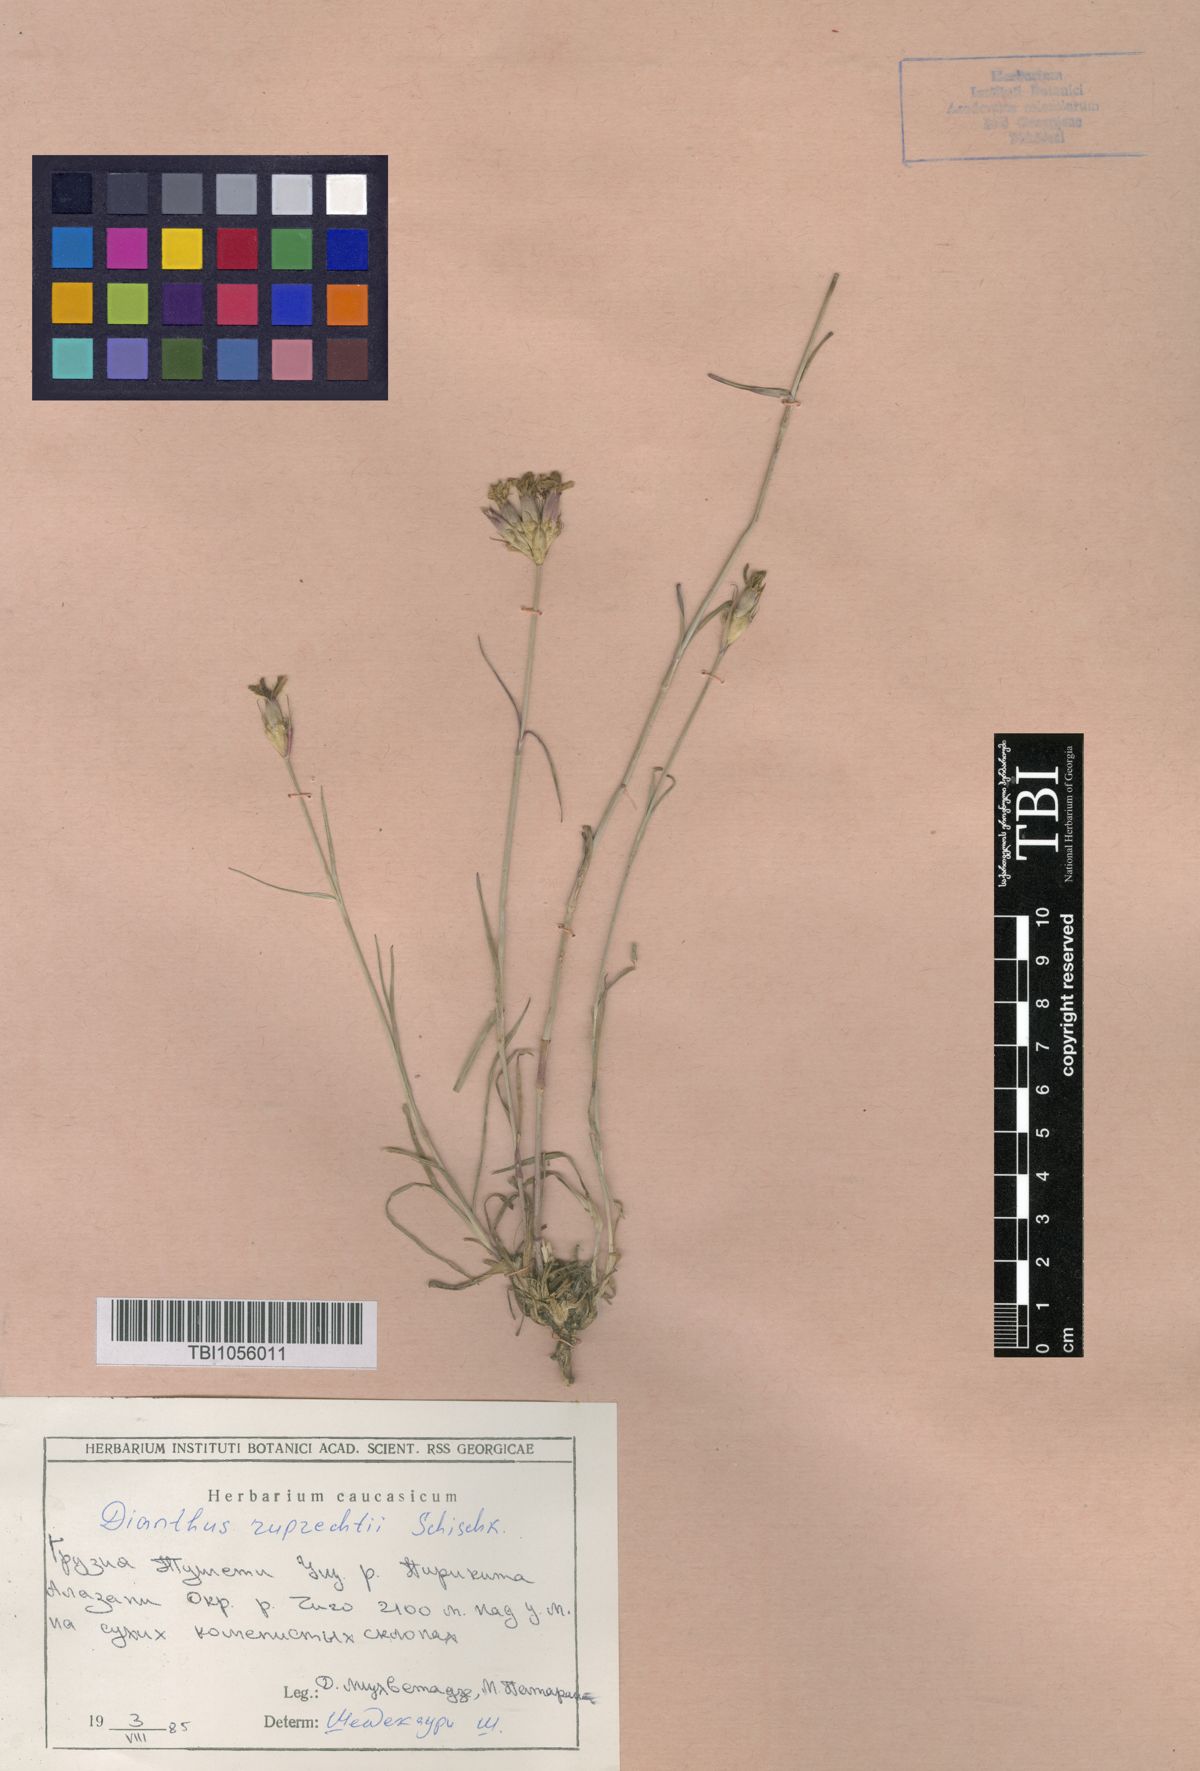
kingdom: Plantae
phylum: Tracheophyta
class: Magnoliopsida
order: Caryophyllales
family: Caryophyllaceae
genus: Dianthus
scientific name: Dianthus ruprechtii
